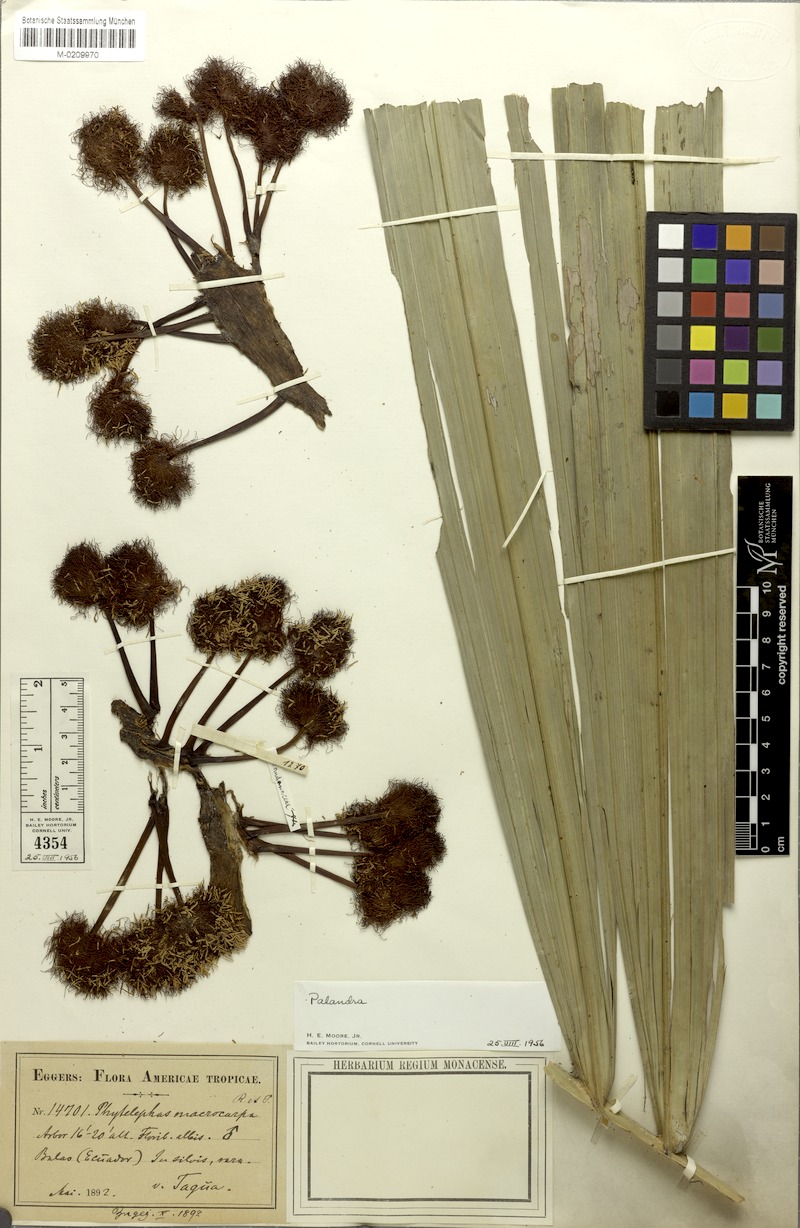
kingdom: Plantae
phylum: Tracheophyta
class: Liliopsida
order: Arecales
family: Arecaceae
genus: Phytelephas
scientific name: Phytelephas
